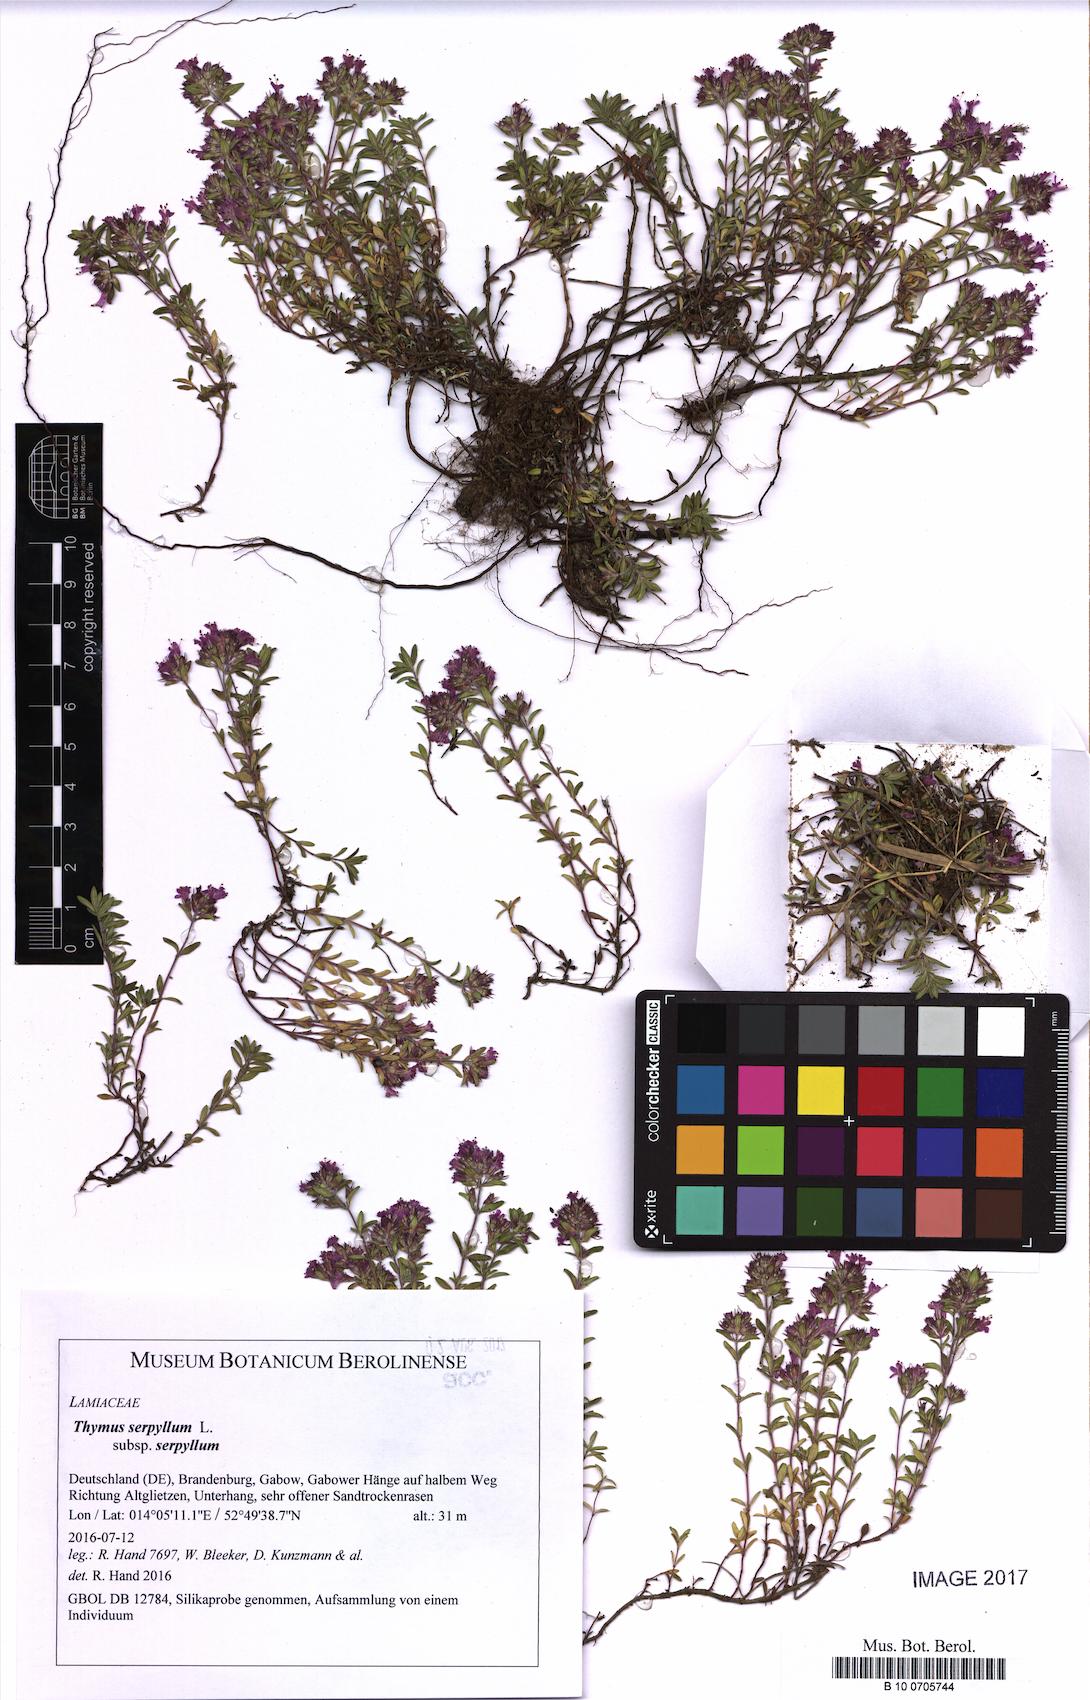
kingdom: Plantae
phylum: Tracheophyta
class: Magnoliopsida
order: Lamiales
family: Lamiaceae
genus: Thymus
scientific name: Thymus serpyllum
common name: Breckland thyme
